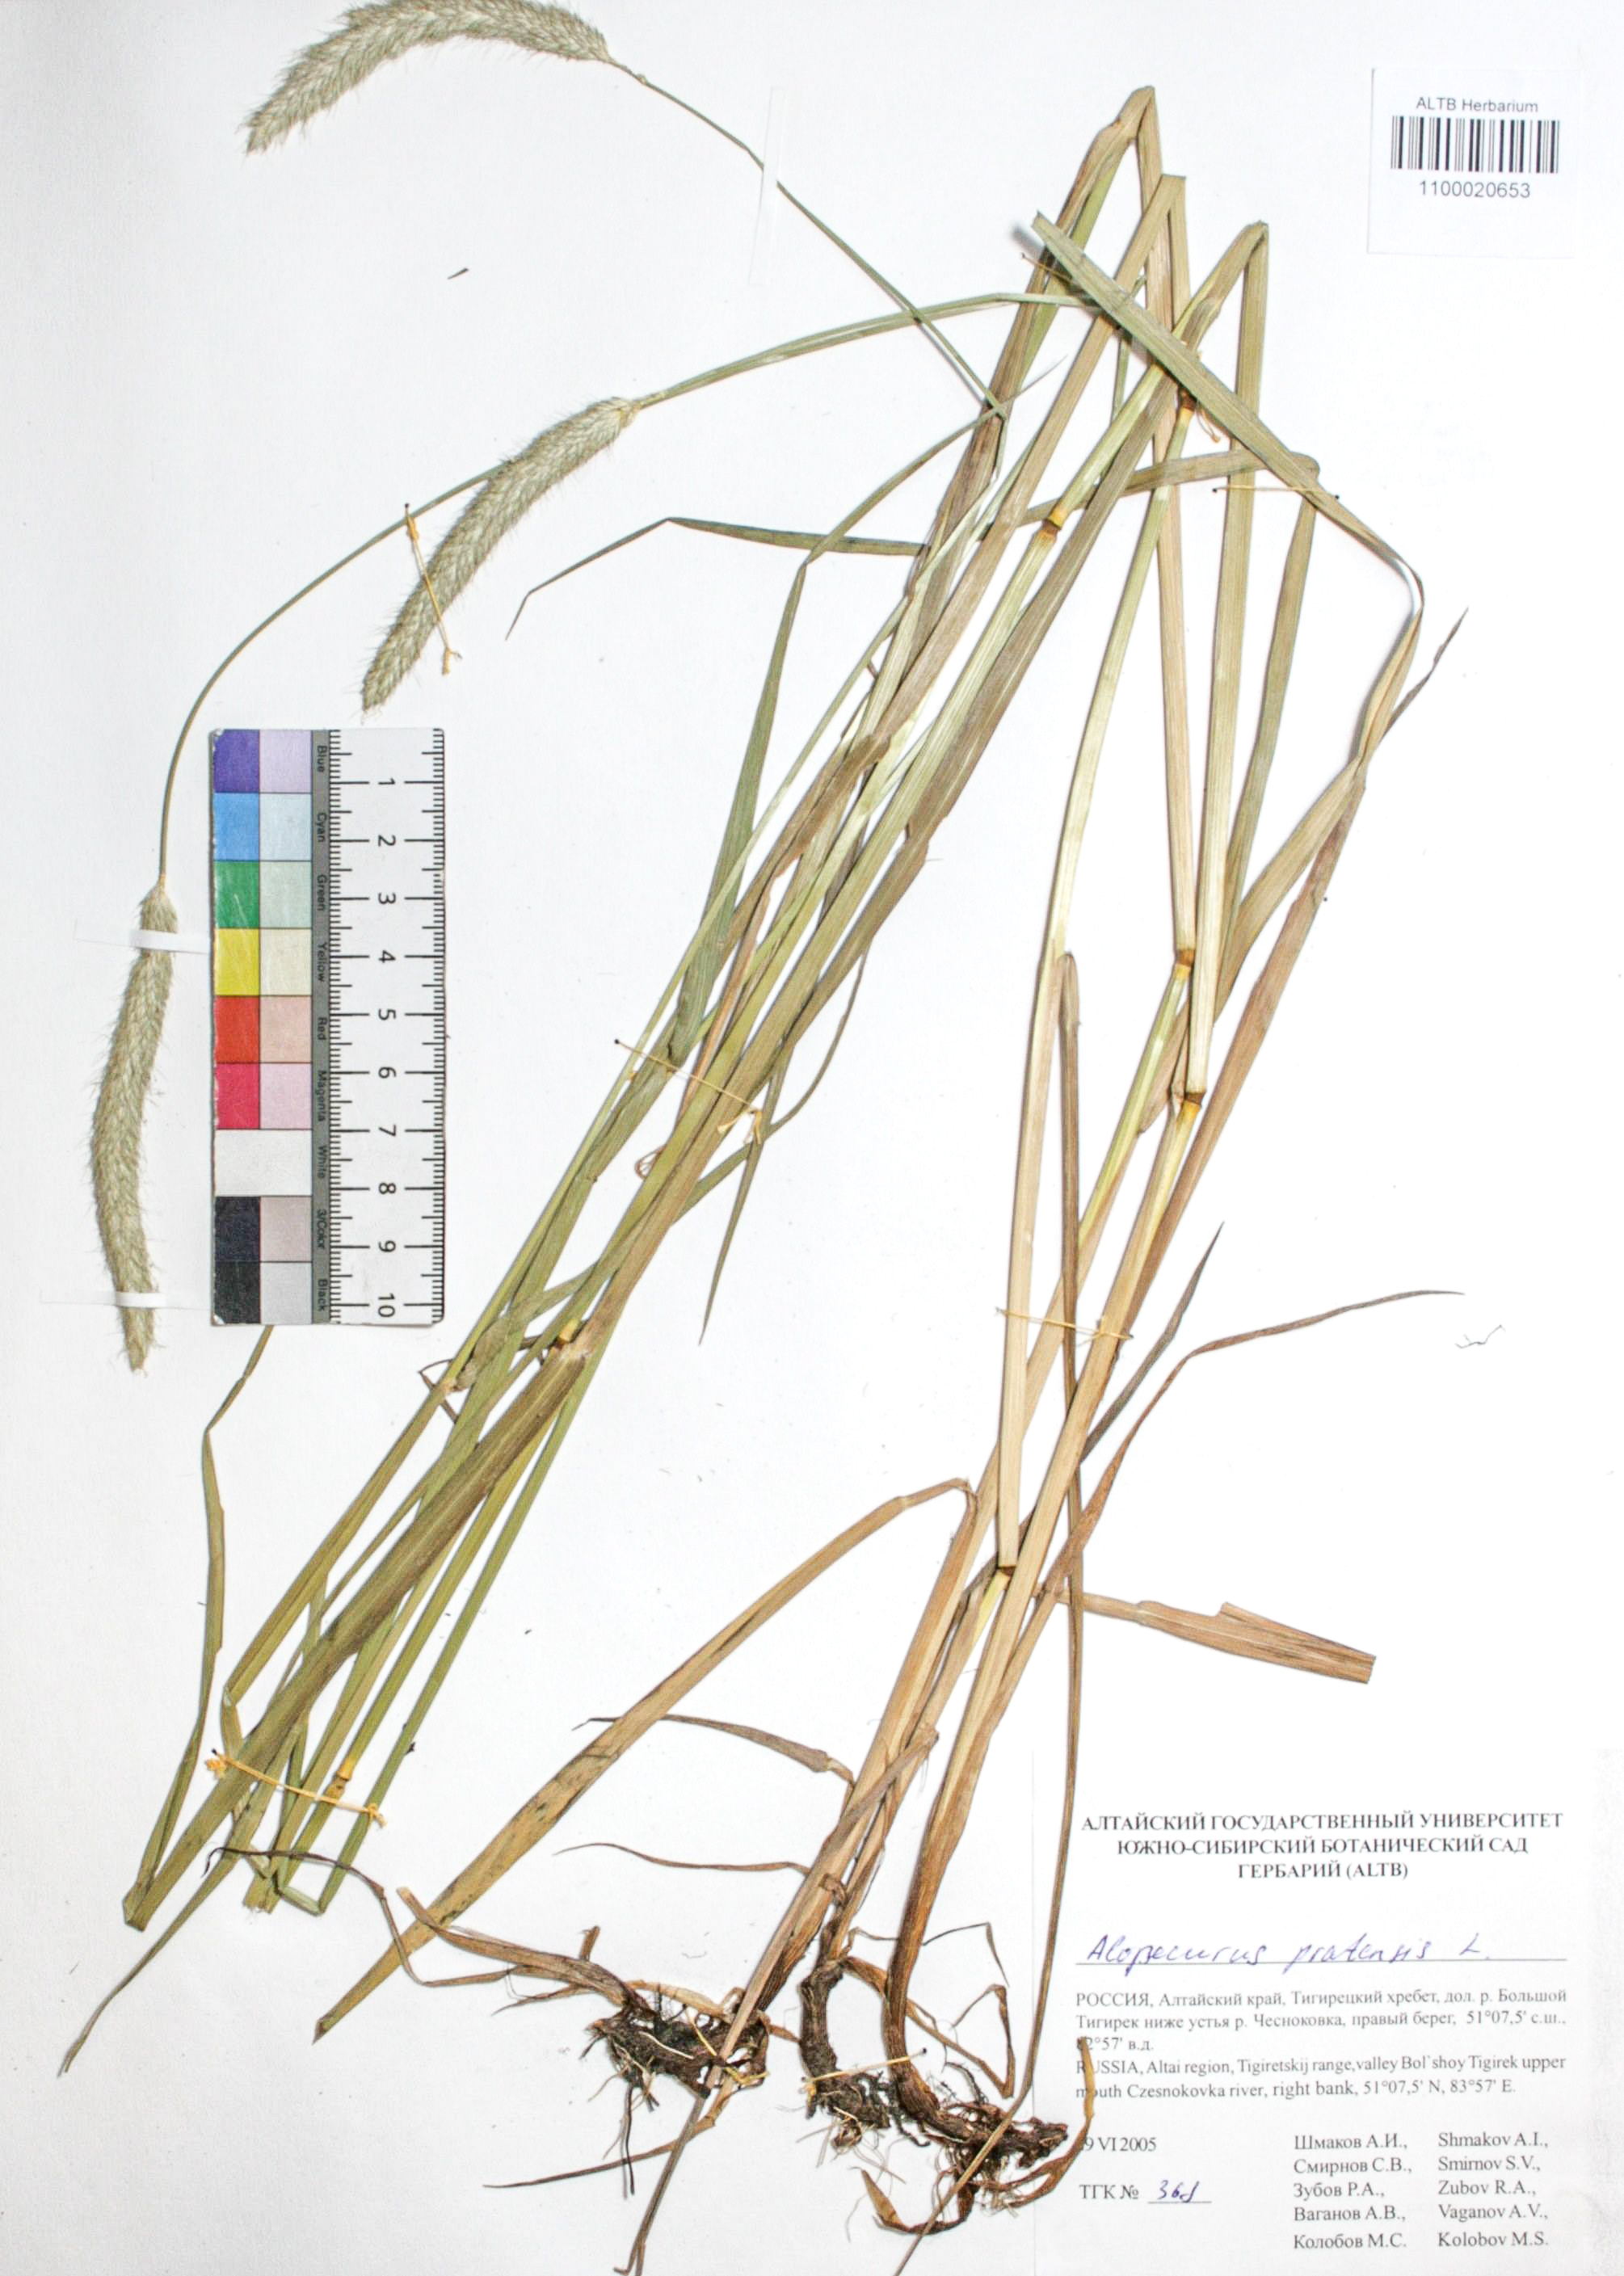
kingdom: Plantae
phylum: Tracheophyta
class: Liliopsida
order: Poales
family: Poaceae
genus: Alopecurus
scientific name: Alopecurus pratensis
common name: Meadow foxtail
